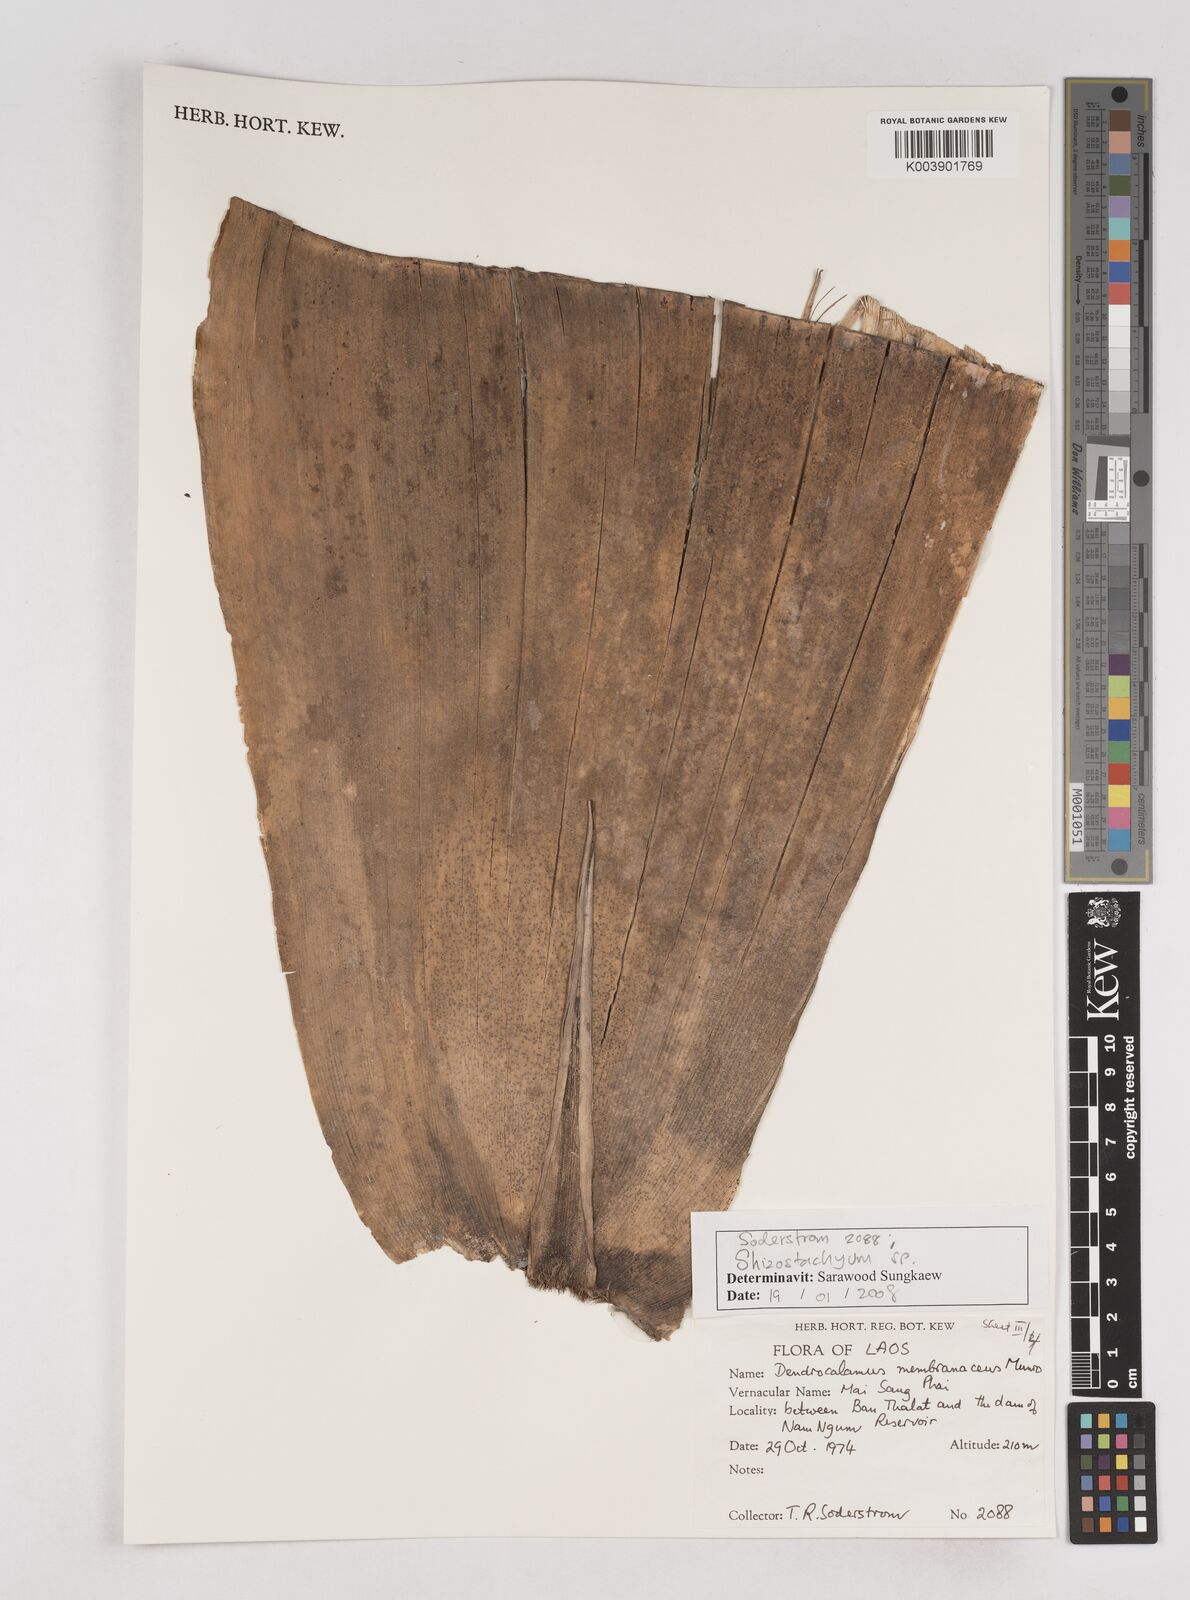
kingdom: Plantae
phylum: Tracheophyta
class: Liliopsida
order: Poales
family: Poaceae
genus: Schizostachyum
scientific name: Schizostachyum
